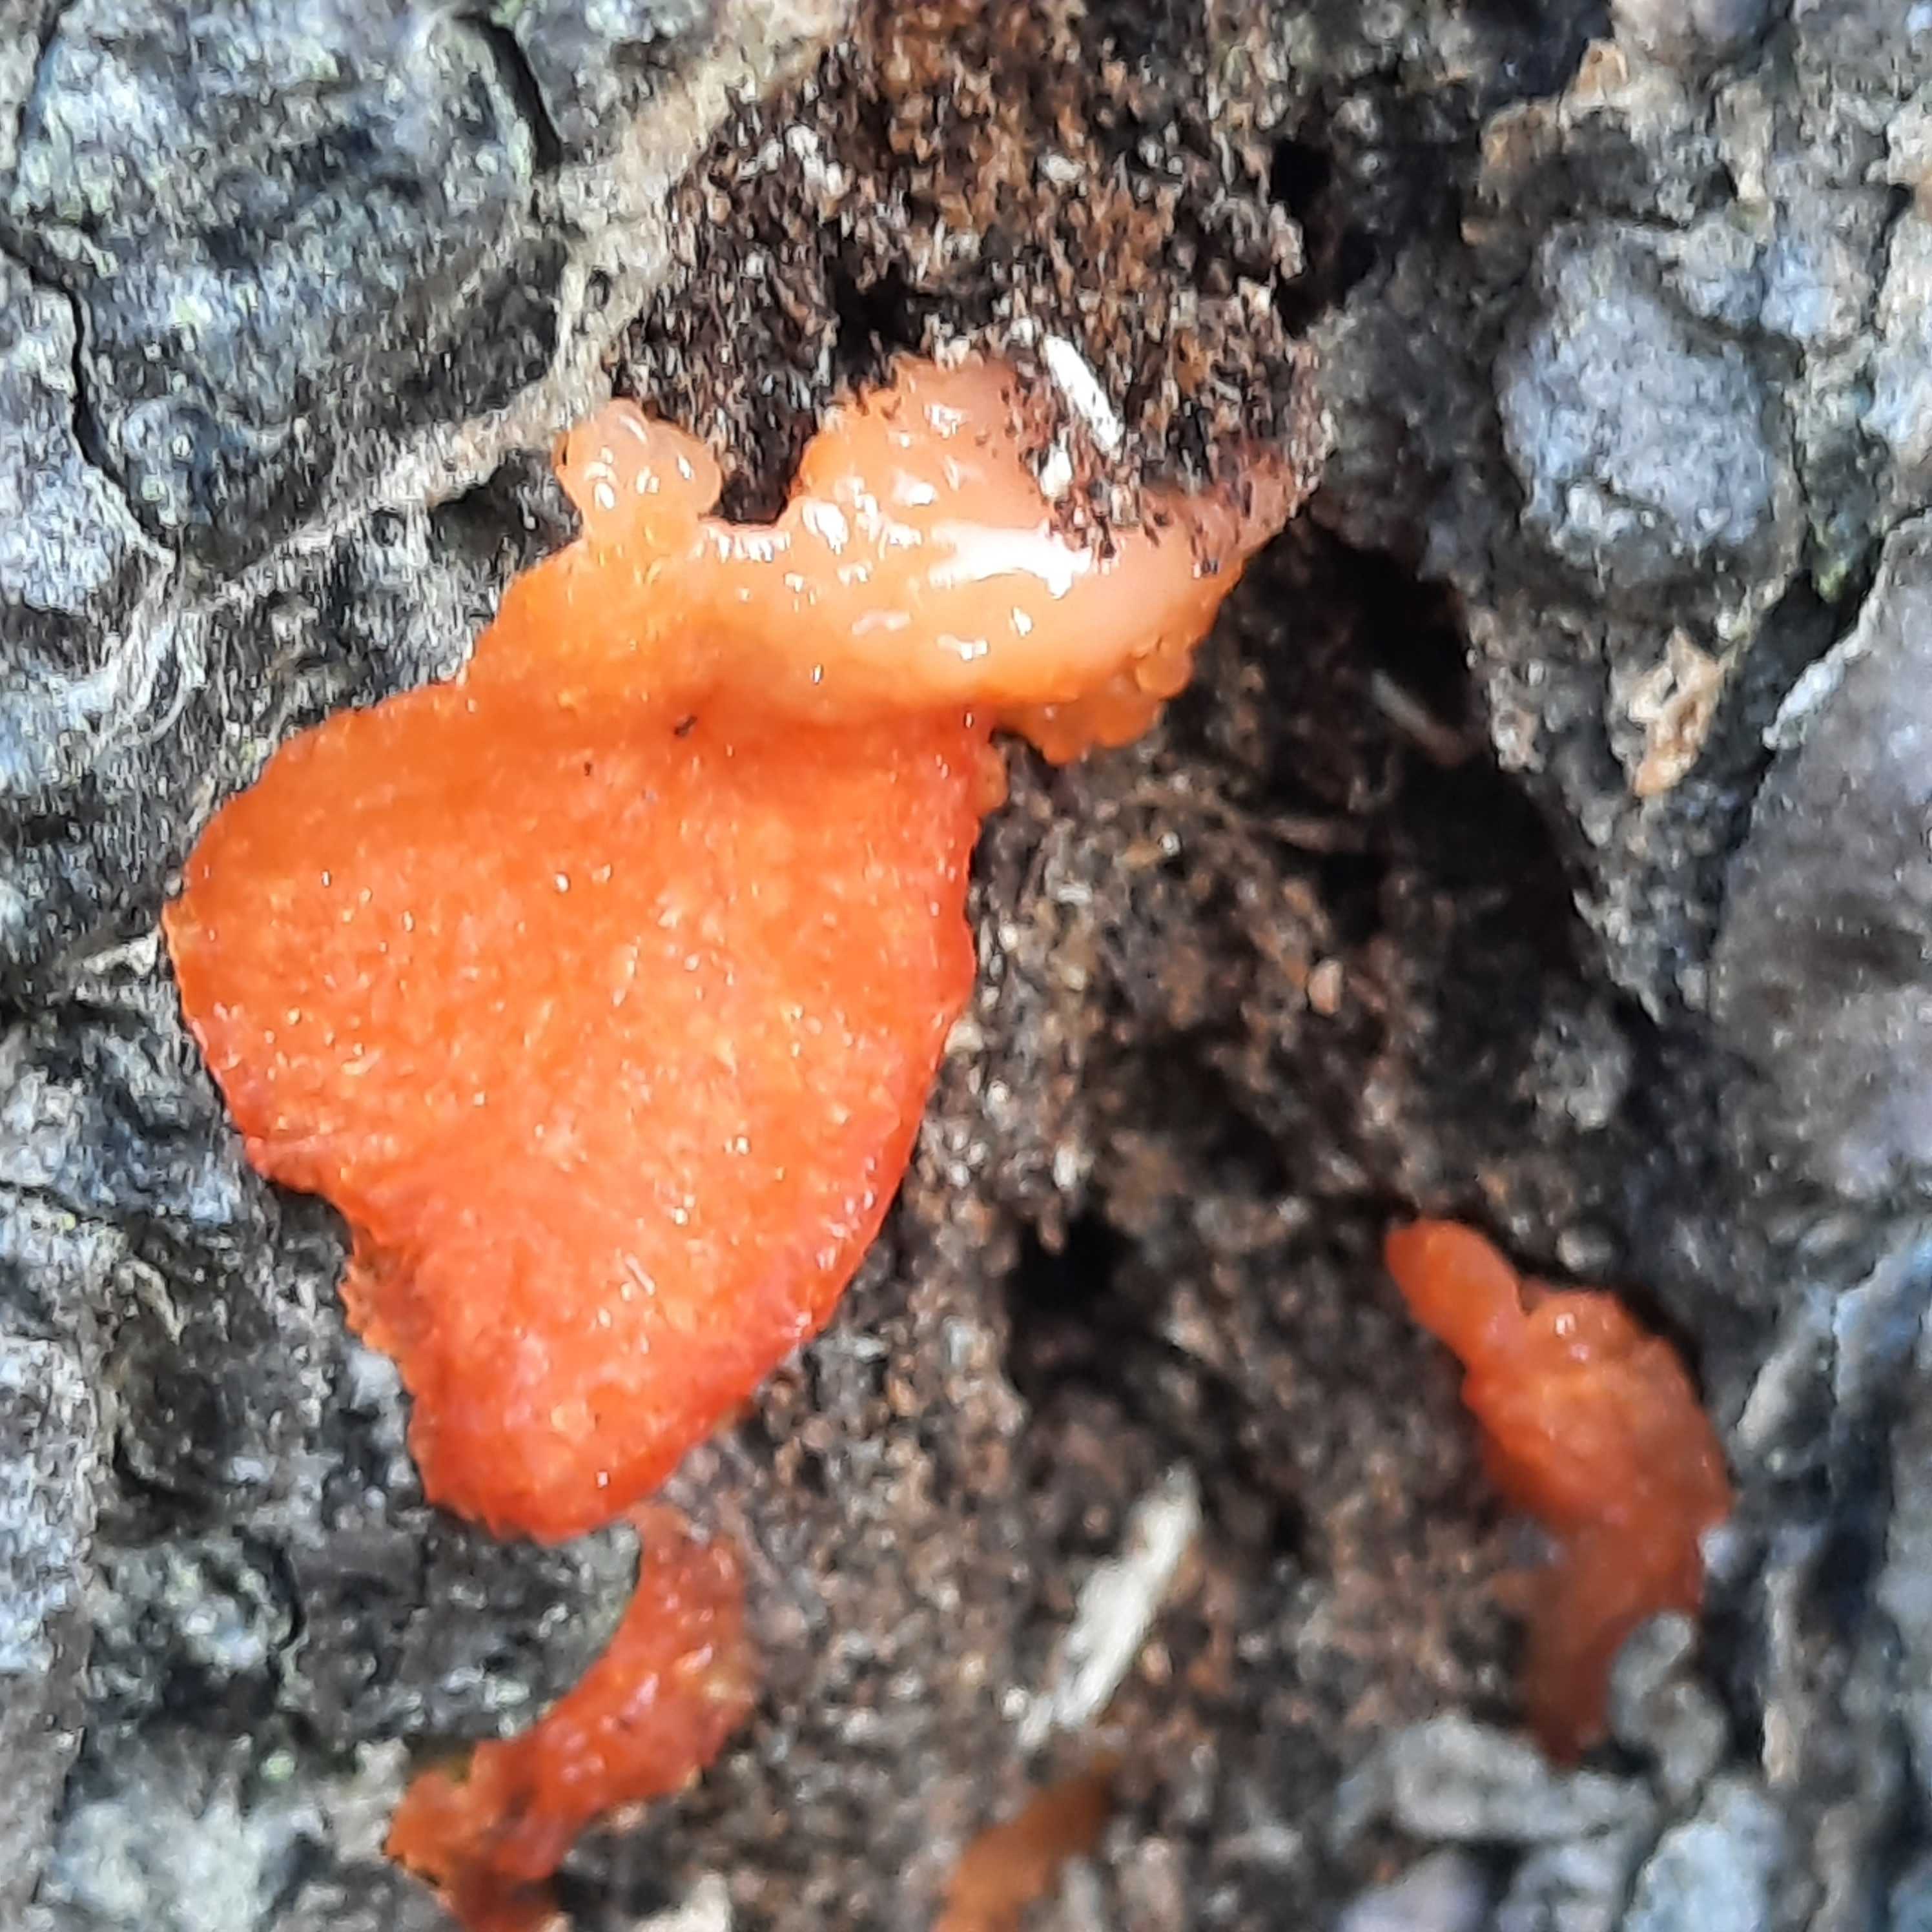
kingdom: Protozoa
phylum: Mycetozoa
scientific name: Mycetozoa
